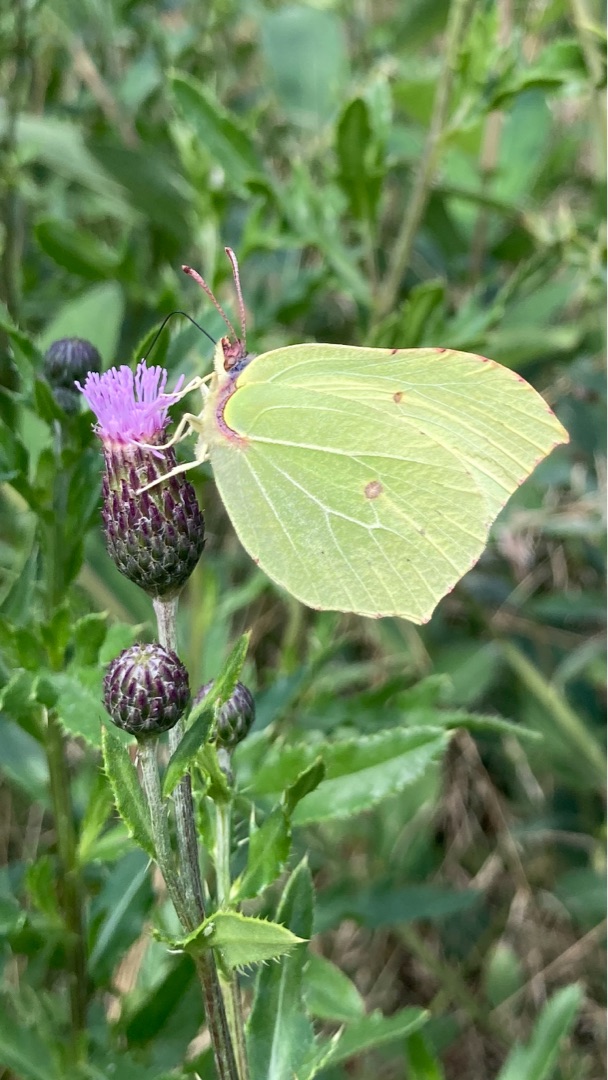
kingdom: Animalia
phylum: Arthropoda
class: Insecta
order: Lepidoptera
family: Pieridae
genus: Gonepteryx
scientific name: Gonepteryx rhamni
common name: Citronsommerfugl
